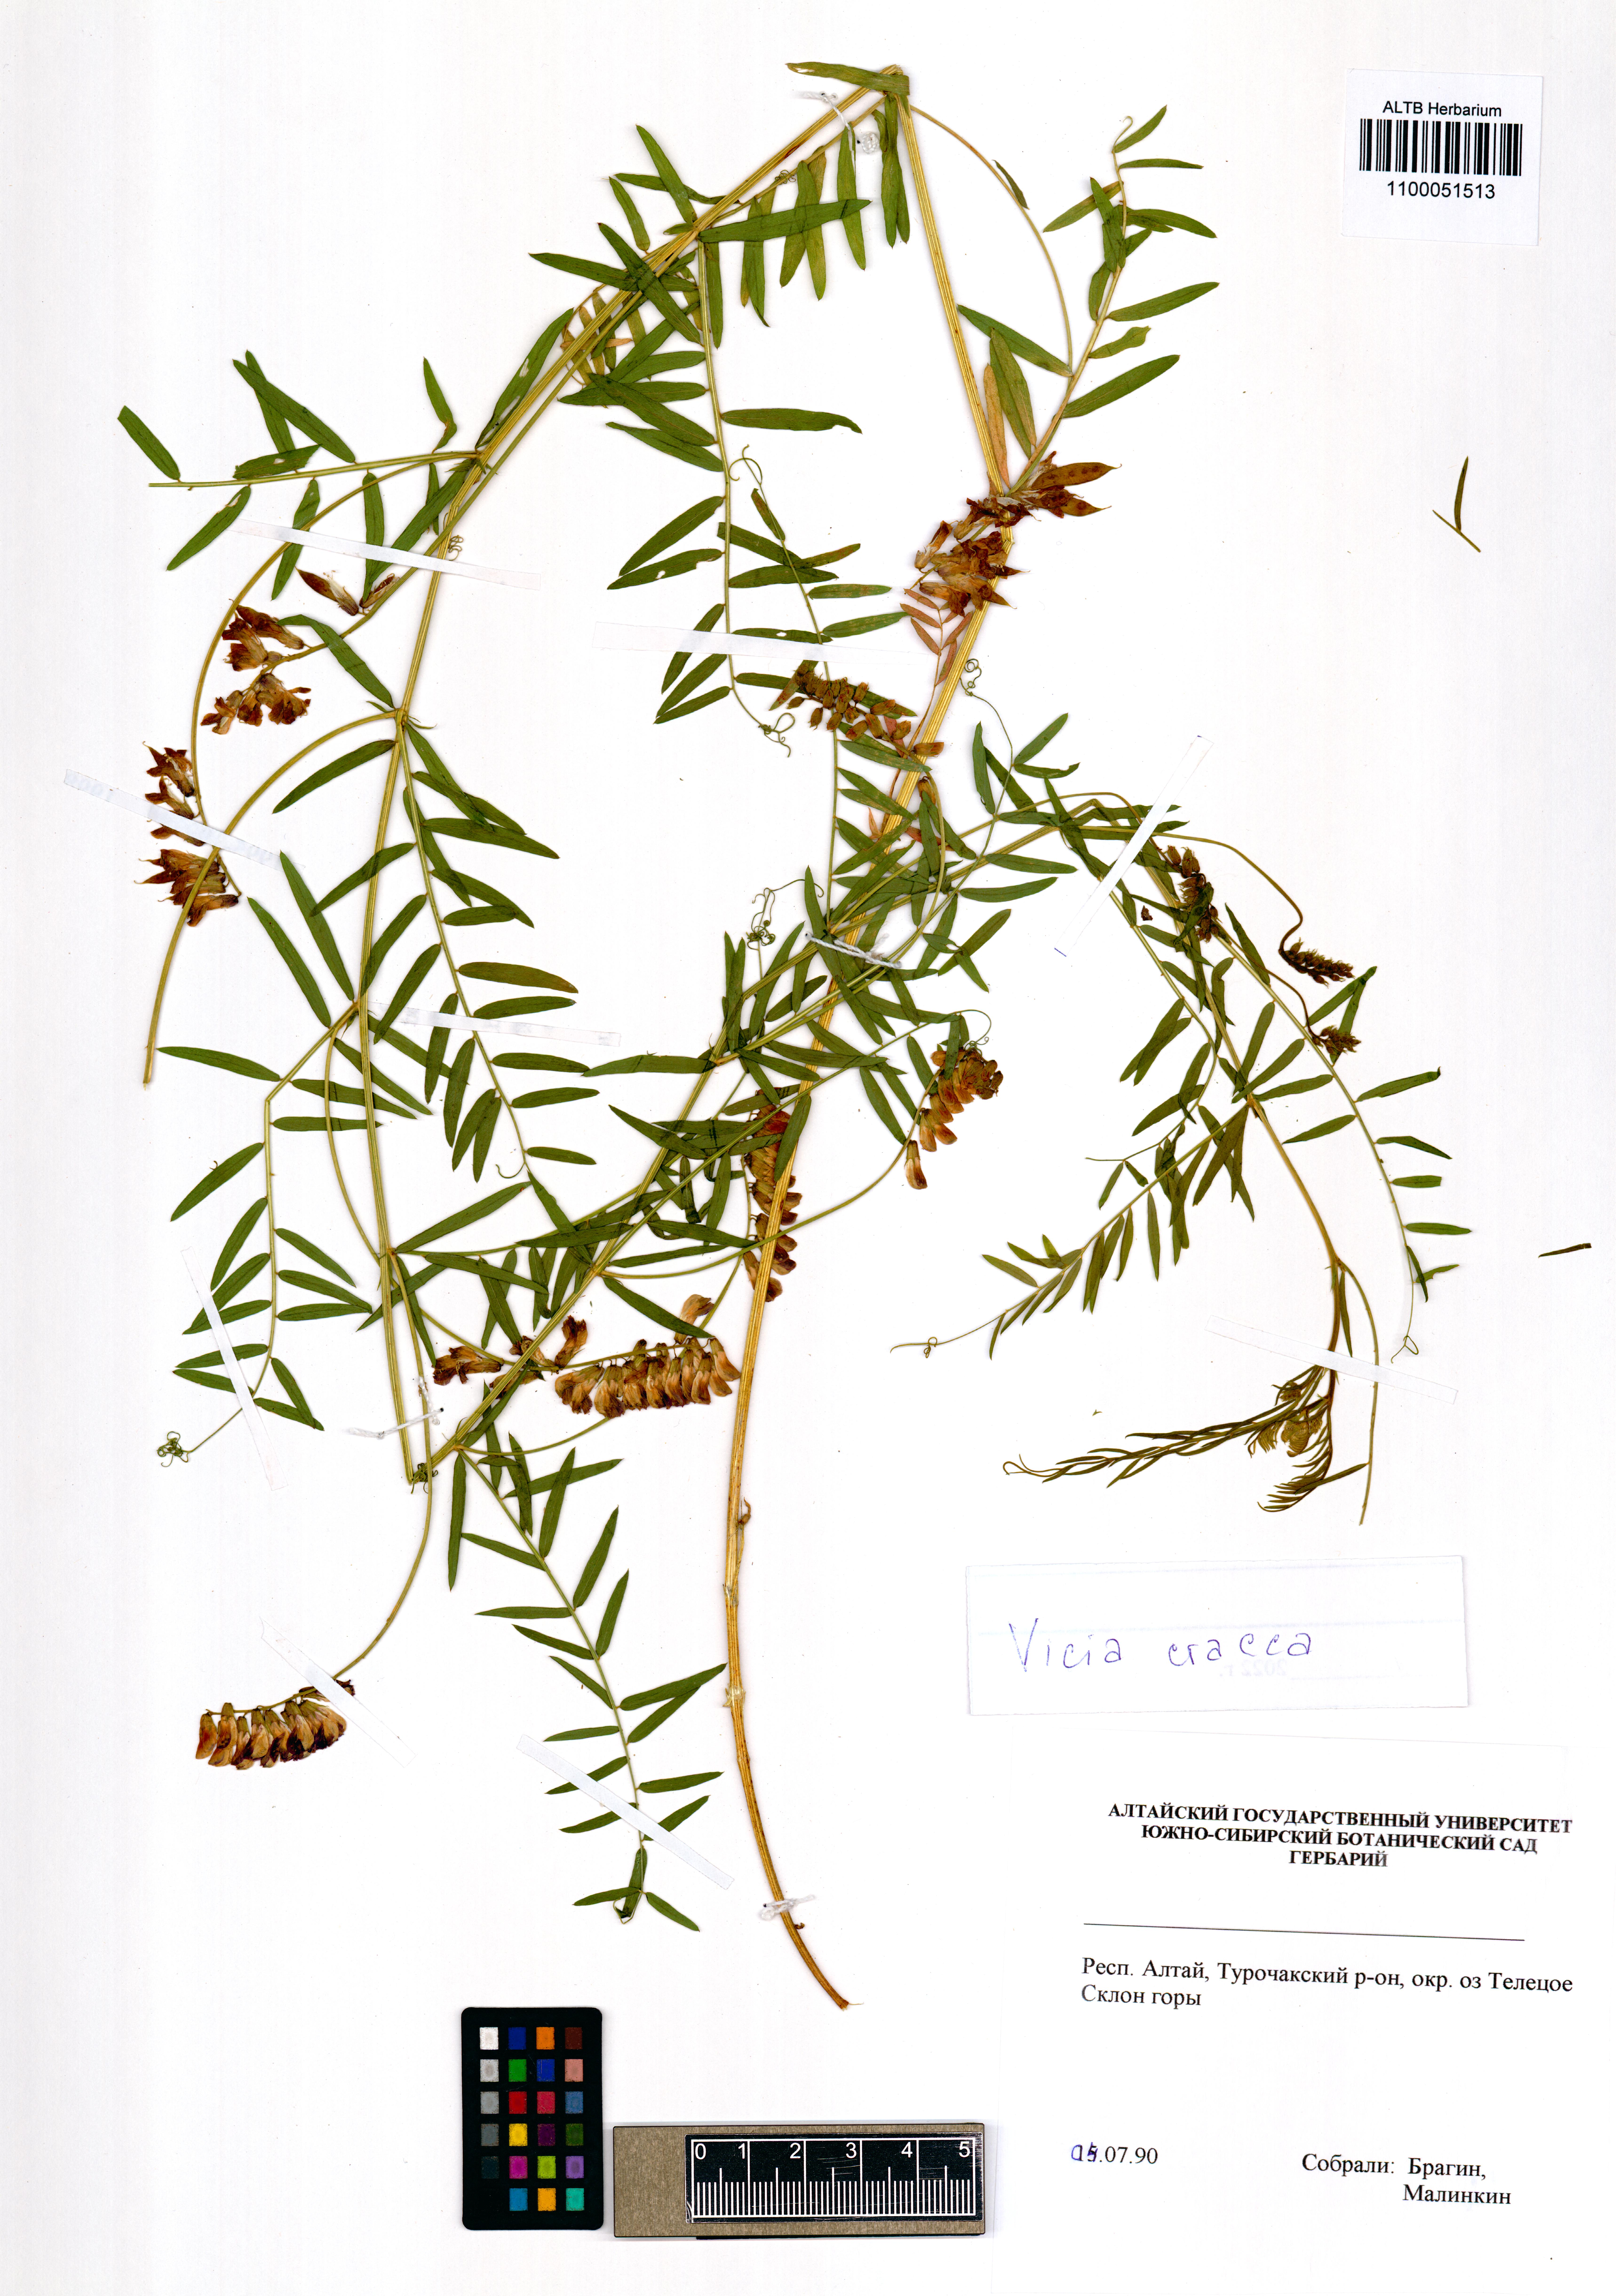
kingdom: Plantae
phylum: Tracheophyta
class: Magnoliopsida
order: Fabales
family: Fabaceae
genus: Vicia
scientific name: Vicia cracca
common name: Bird vetch
